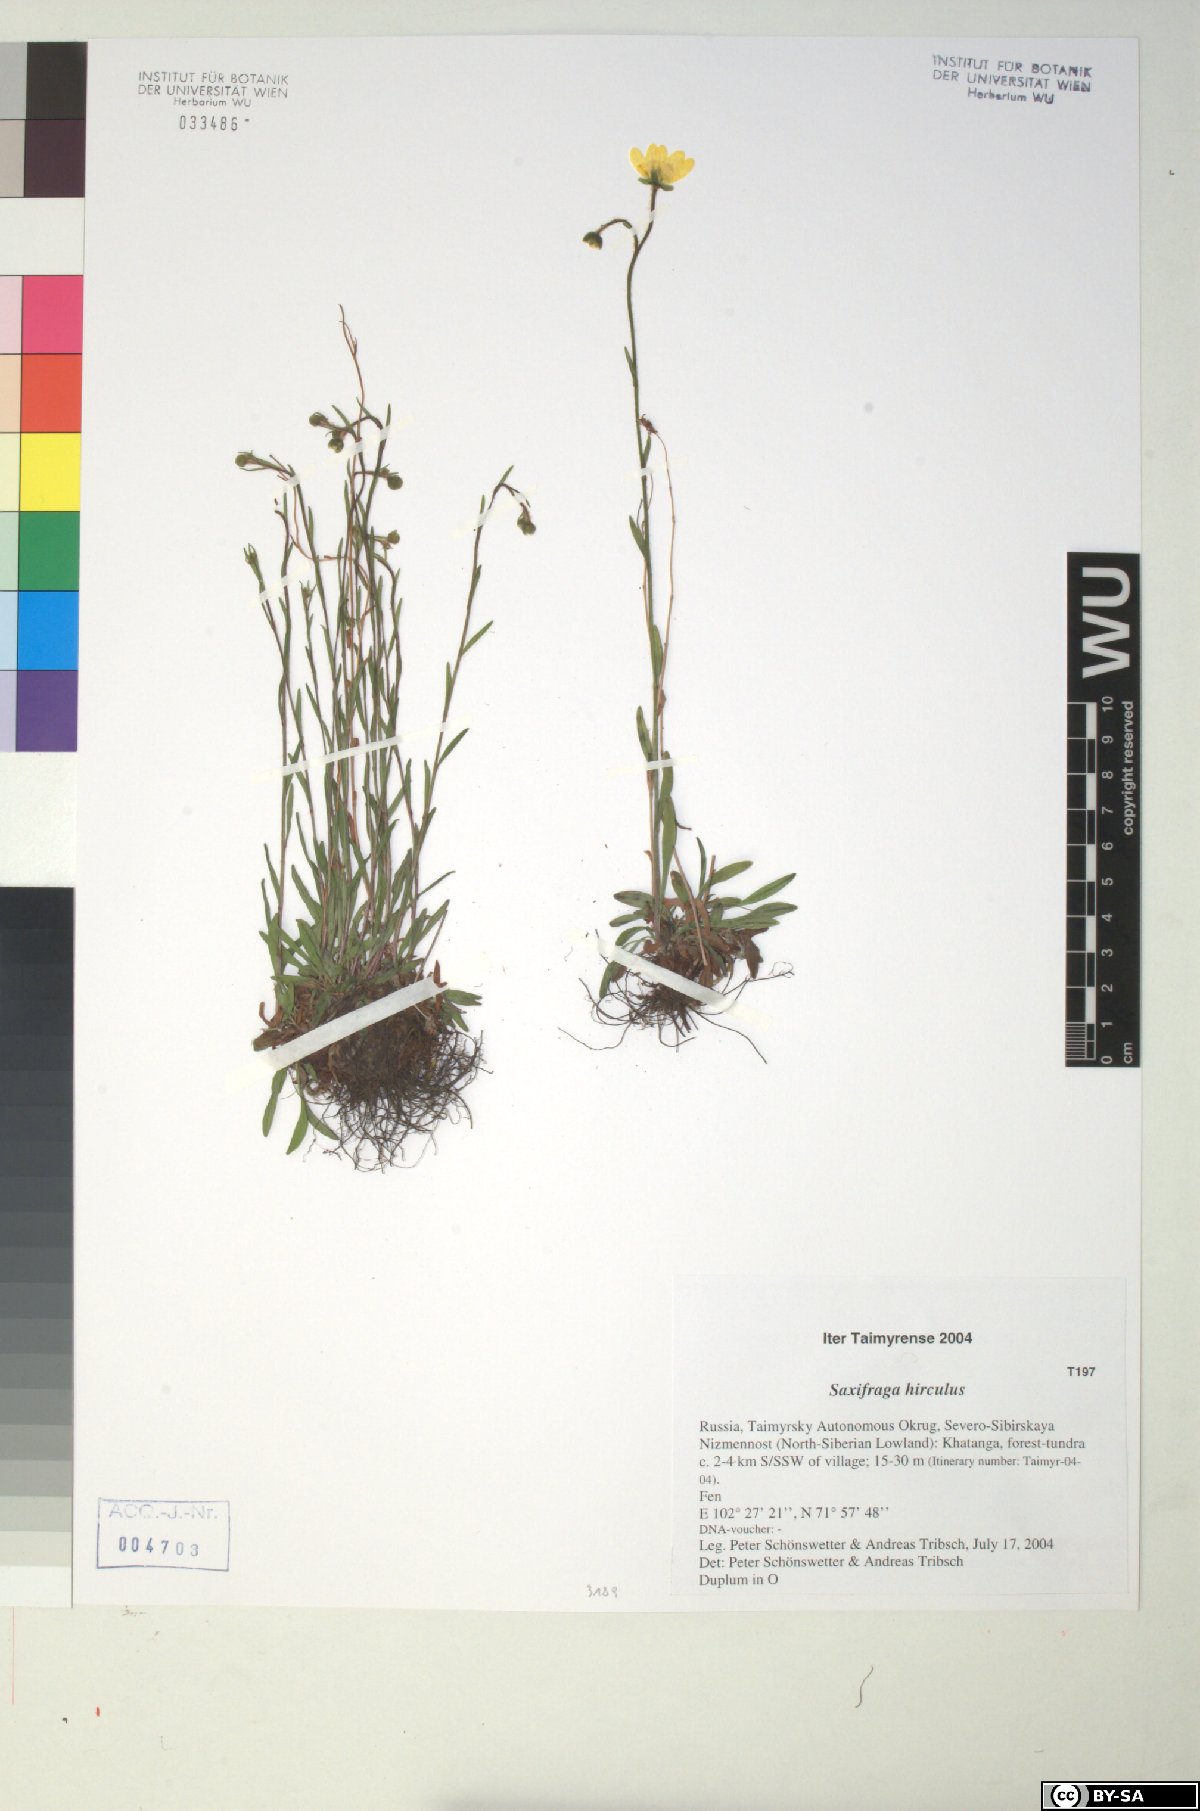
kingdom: Plantae
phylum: Tracheophyta
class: Magnoliopsida
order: Saxifragales
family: Saxifragaceae
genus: Saxifraga
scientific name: Saxifraga hirculus
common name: Yellow marsh saxifrage
